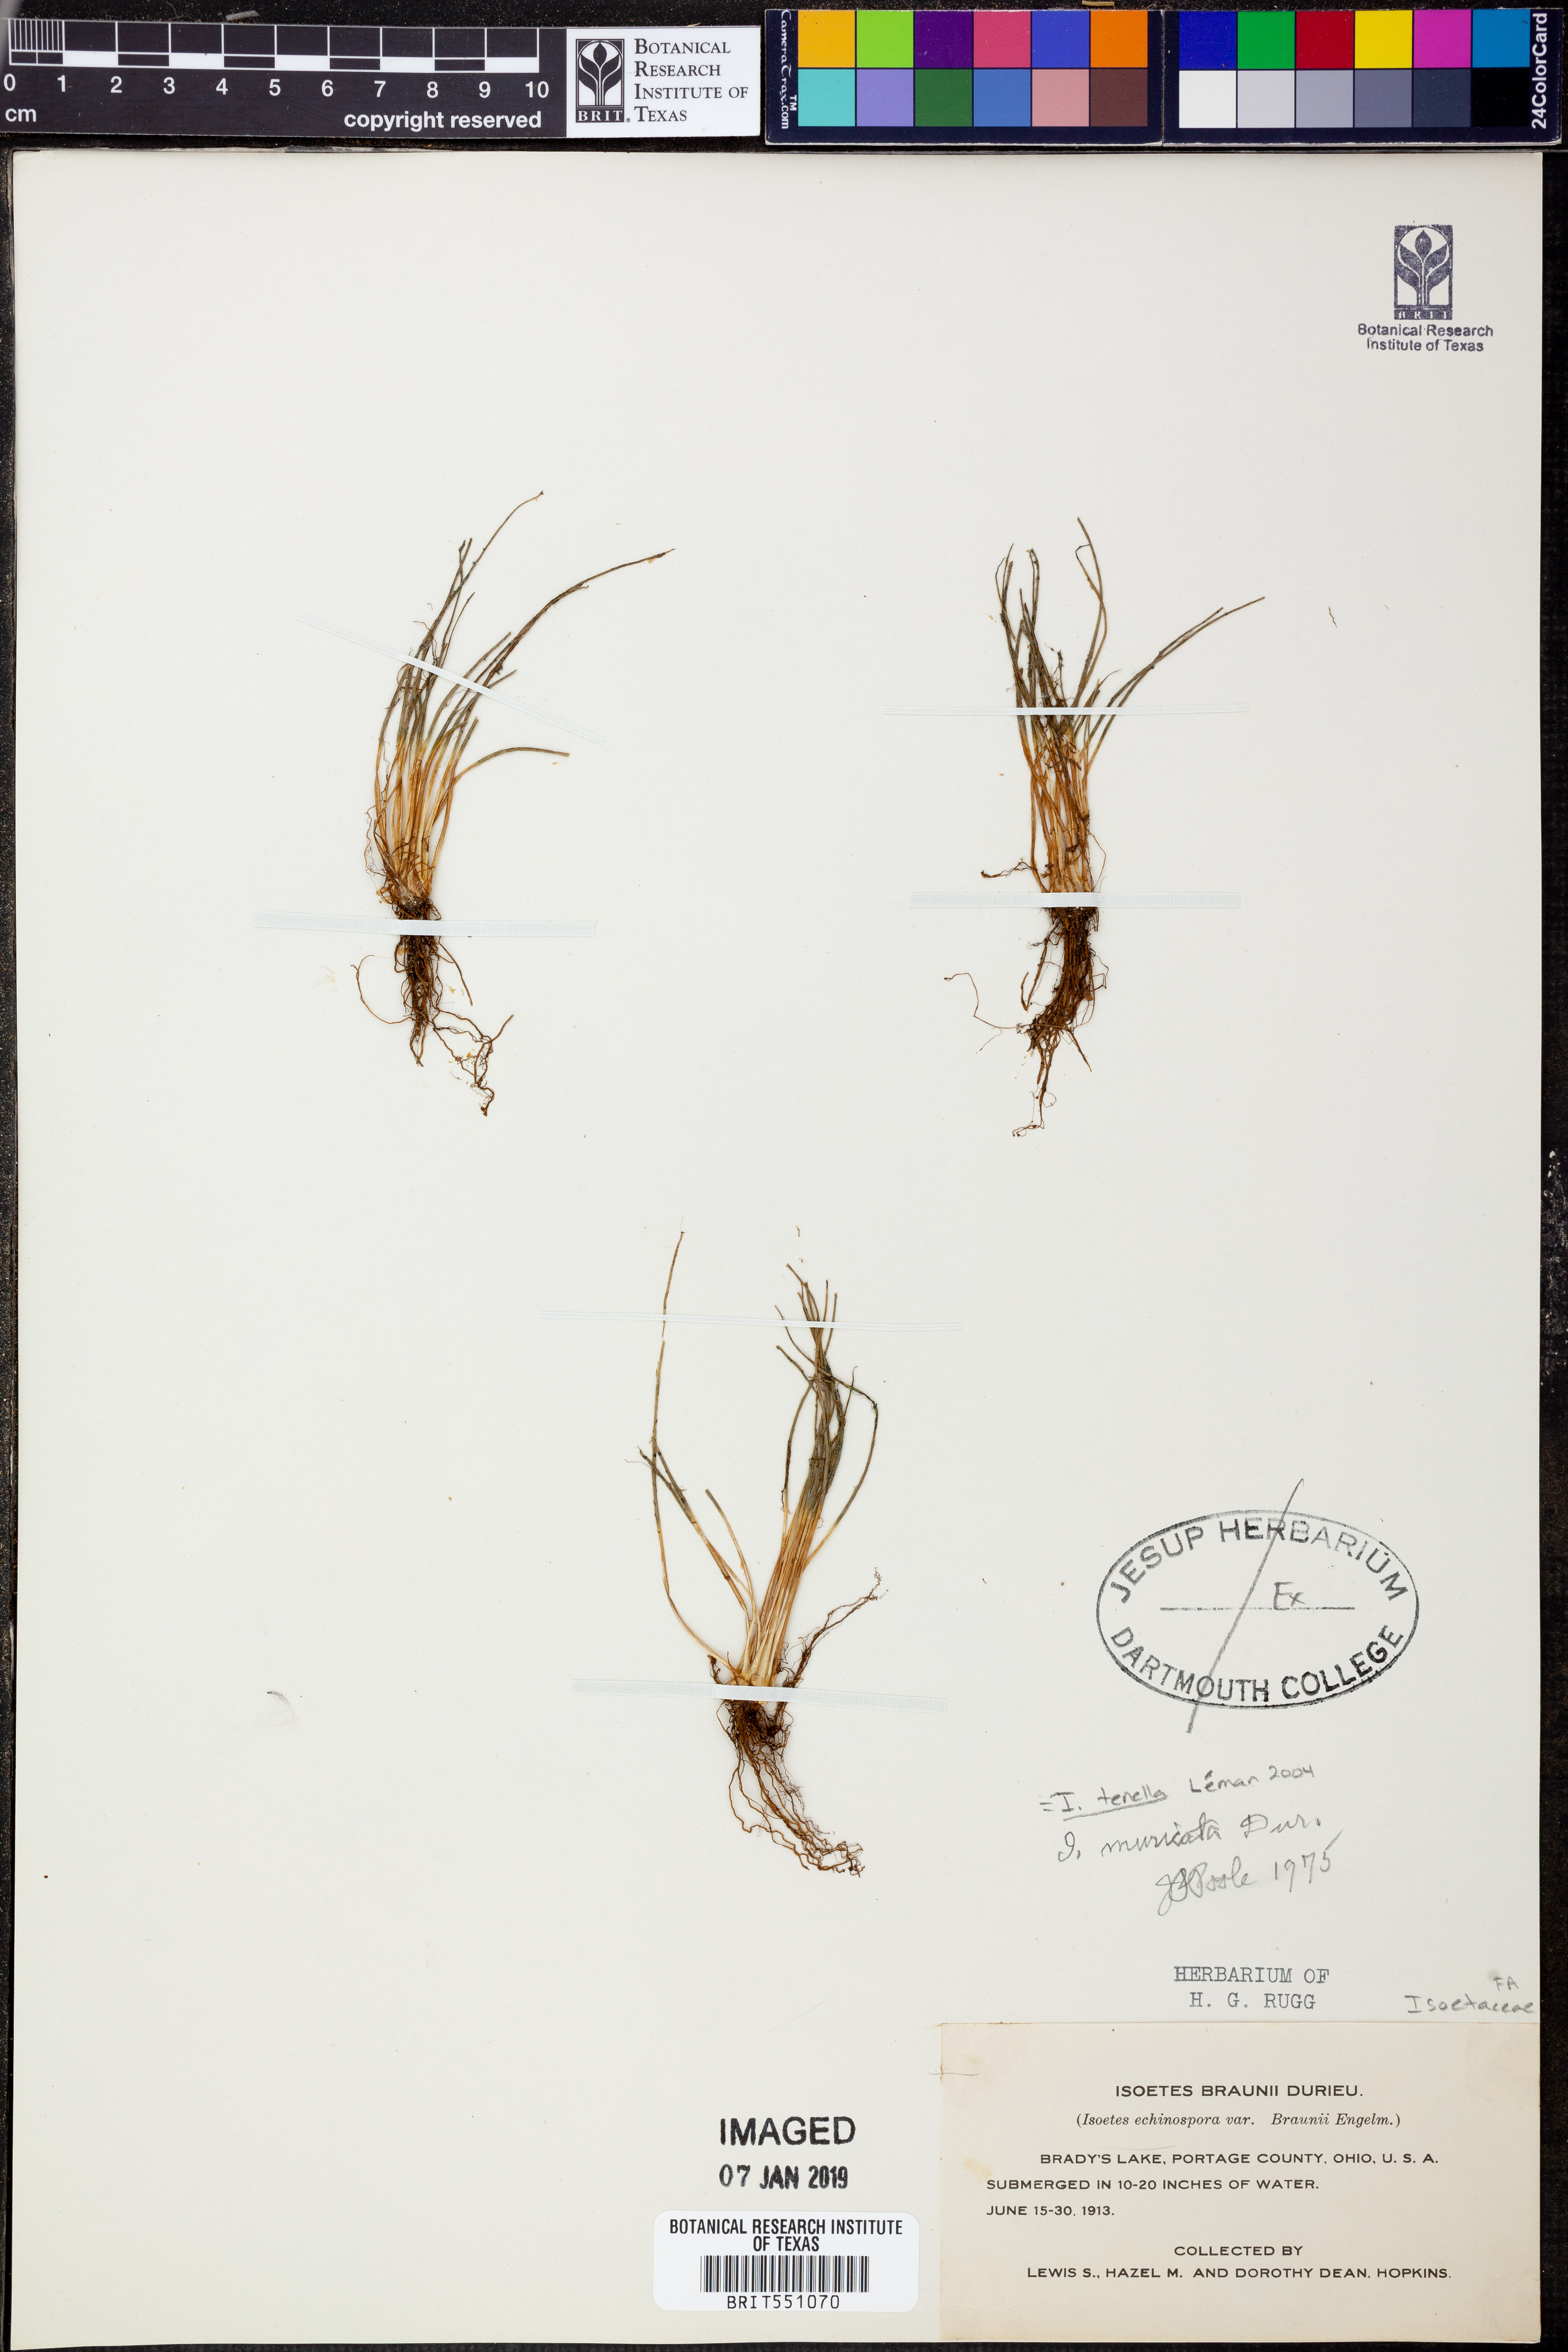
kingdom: Plantae
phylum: Tracheophyta
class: Lycopodiopsida
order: Isoetales
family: Isoetaceae
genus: Isoetes
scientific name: Isoetes lacustris
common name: Common quillwort
